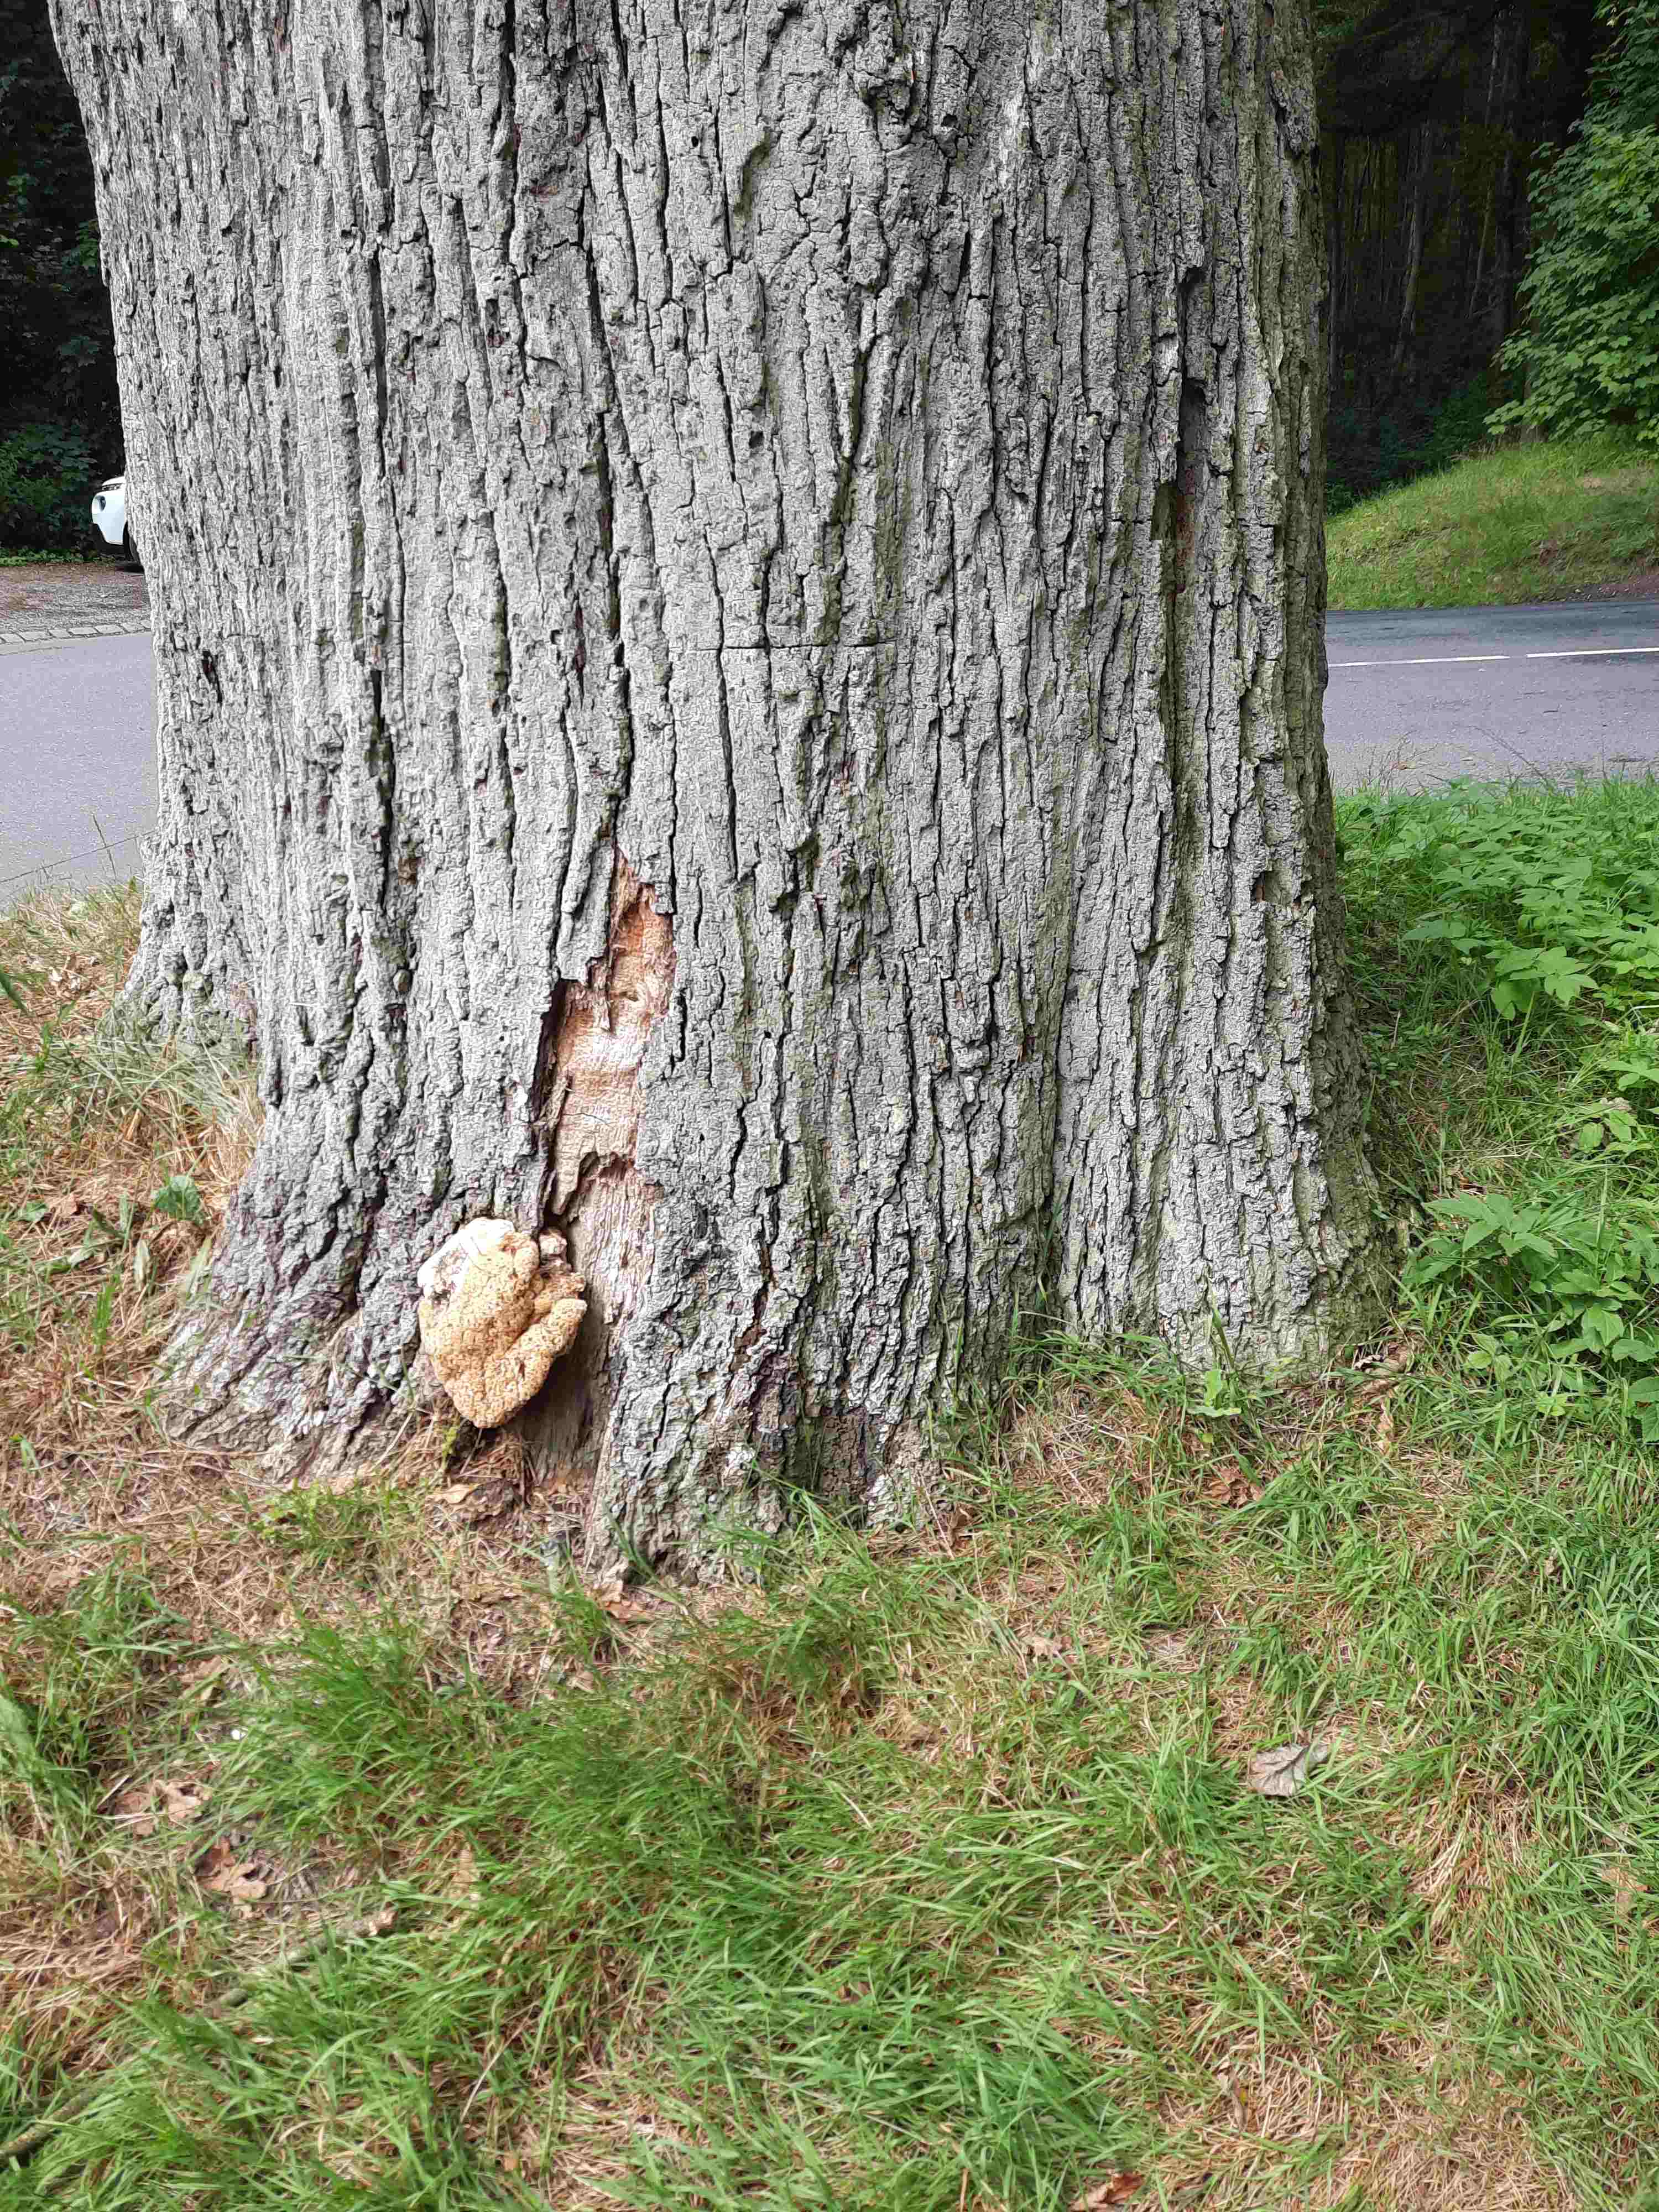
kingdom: Fungi
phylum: Basidiomycota
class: Agaricomycetes
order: Hymenochaetales
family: Hymenochaetaceae
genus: Pseudoinonotus
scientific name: Pseudoinonotus dryadeus
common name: ege-spejlporesvamp
